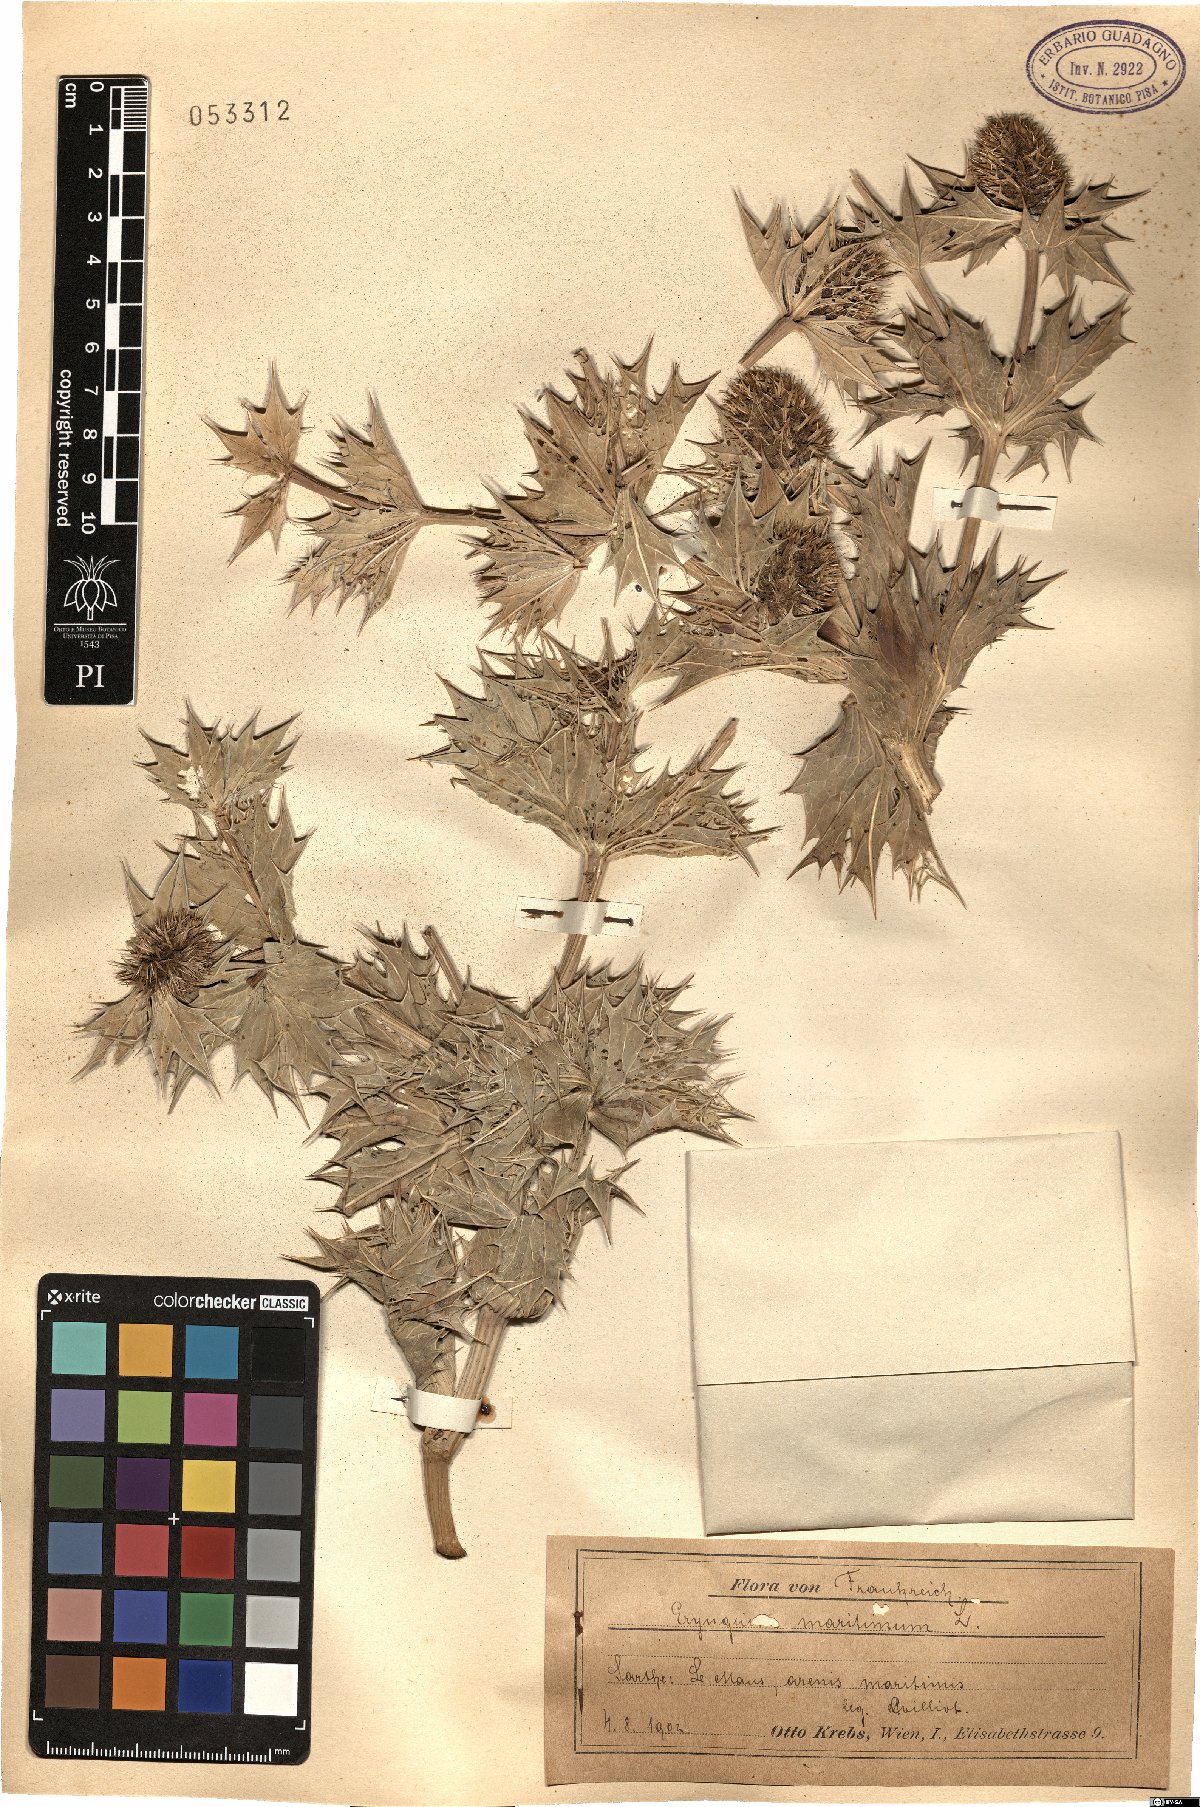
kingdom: Plantae
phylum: Tracheophyta
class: Magnoliopsida
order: Apiales
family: Apiaceae
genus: Eryngium
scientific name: Eryngium maritimum
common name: Sea-holly
